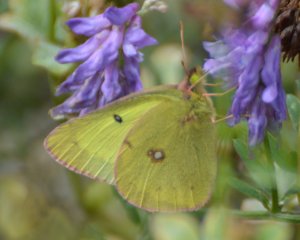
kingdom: Animalia
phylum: Arthropoda
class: Insecta
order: Lepidoptera
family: Pieridae
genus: Colias
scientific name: Colias philodice
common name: Clouded Sulphur
